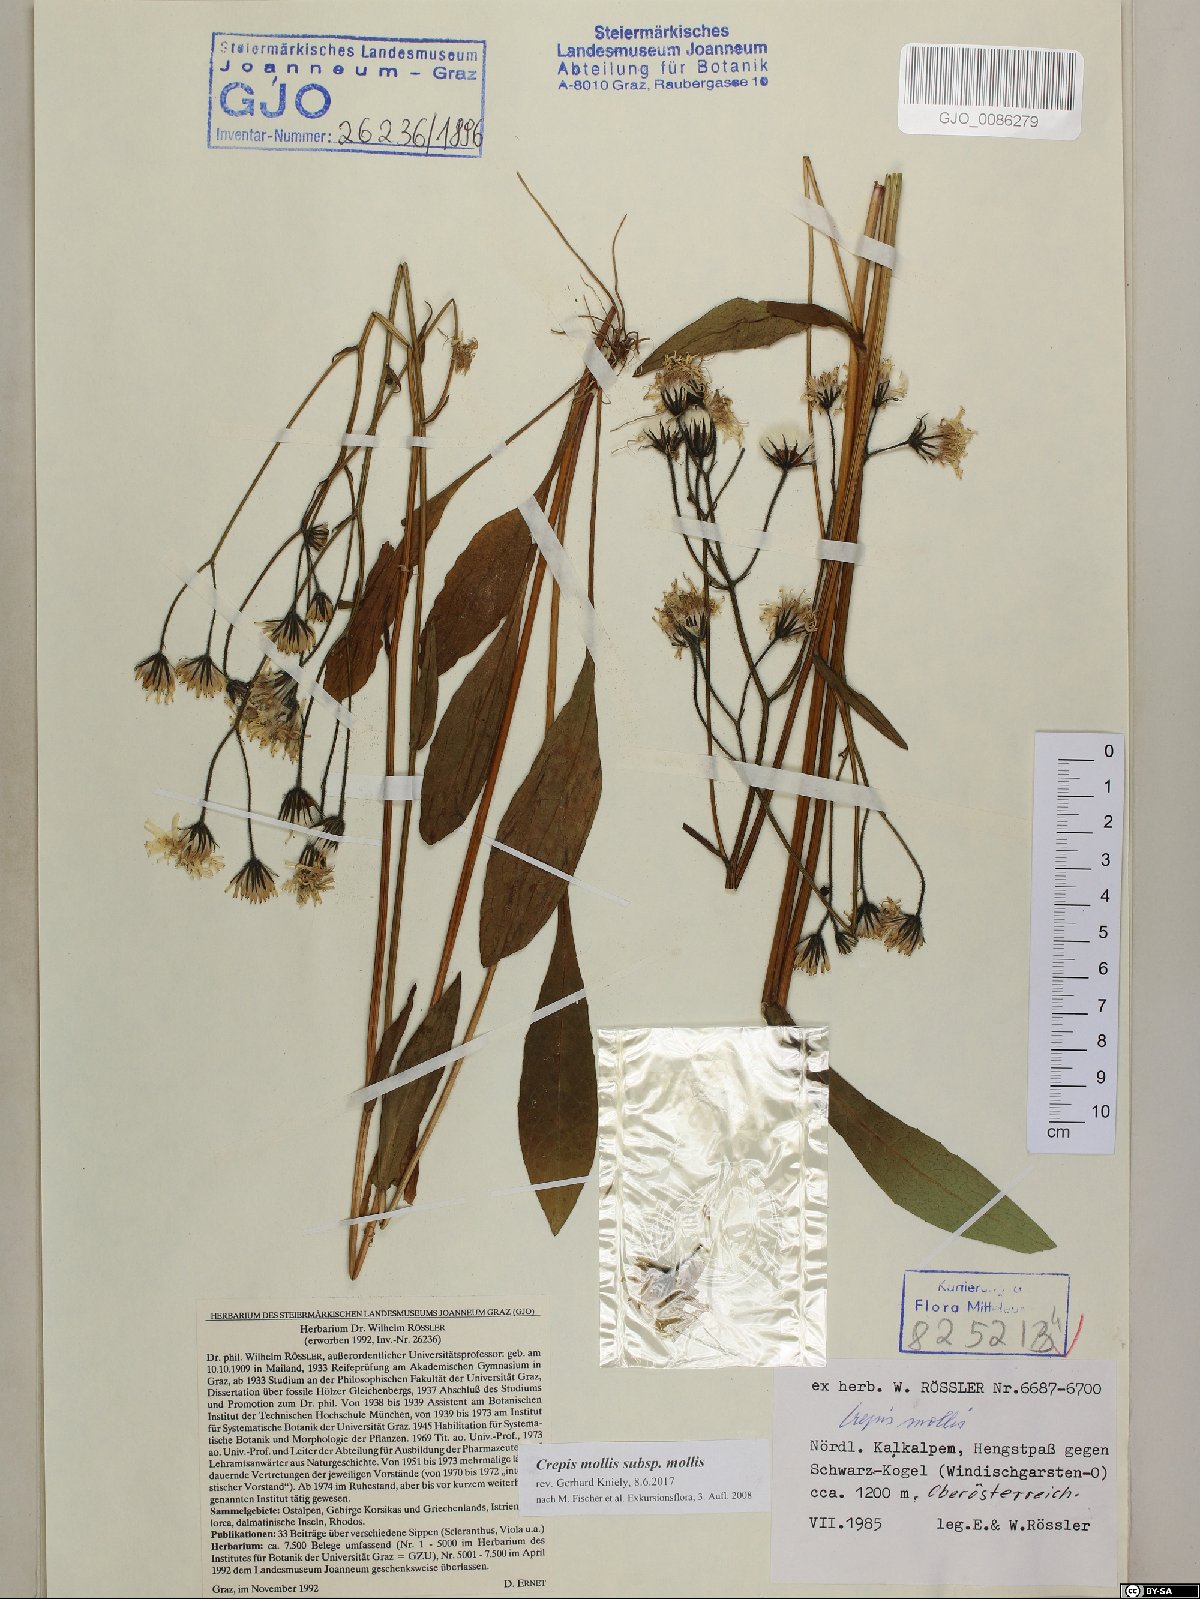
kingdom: Plantae
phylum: Tracheophyta
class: Magnoliopsida
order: Asterales
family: Asteraceae
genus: Crepis
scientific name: Crepis mollis
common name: Northern hawk's-beard
